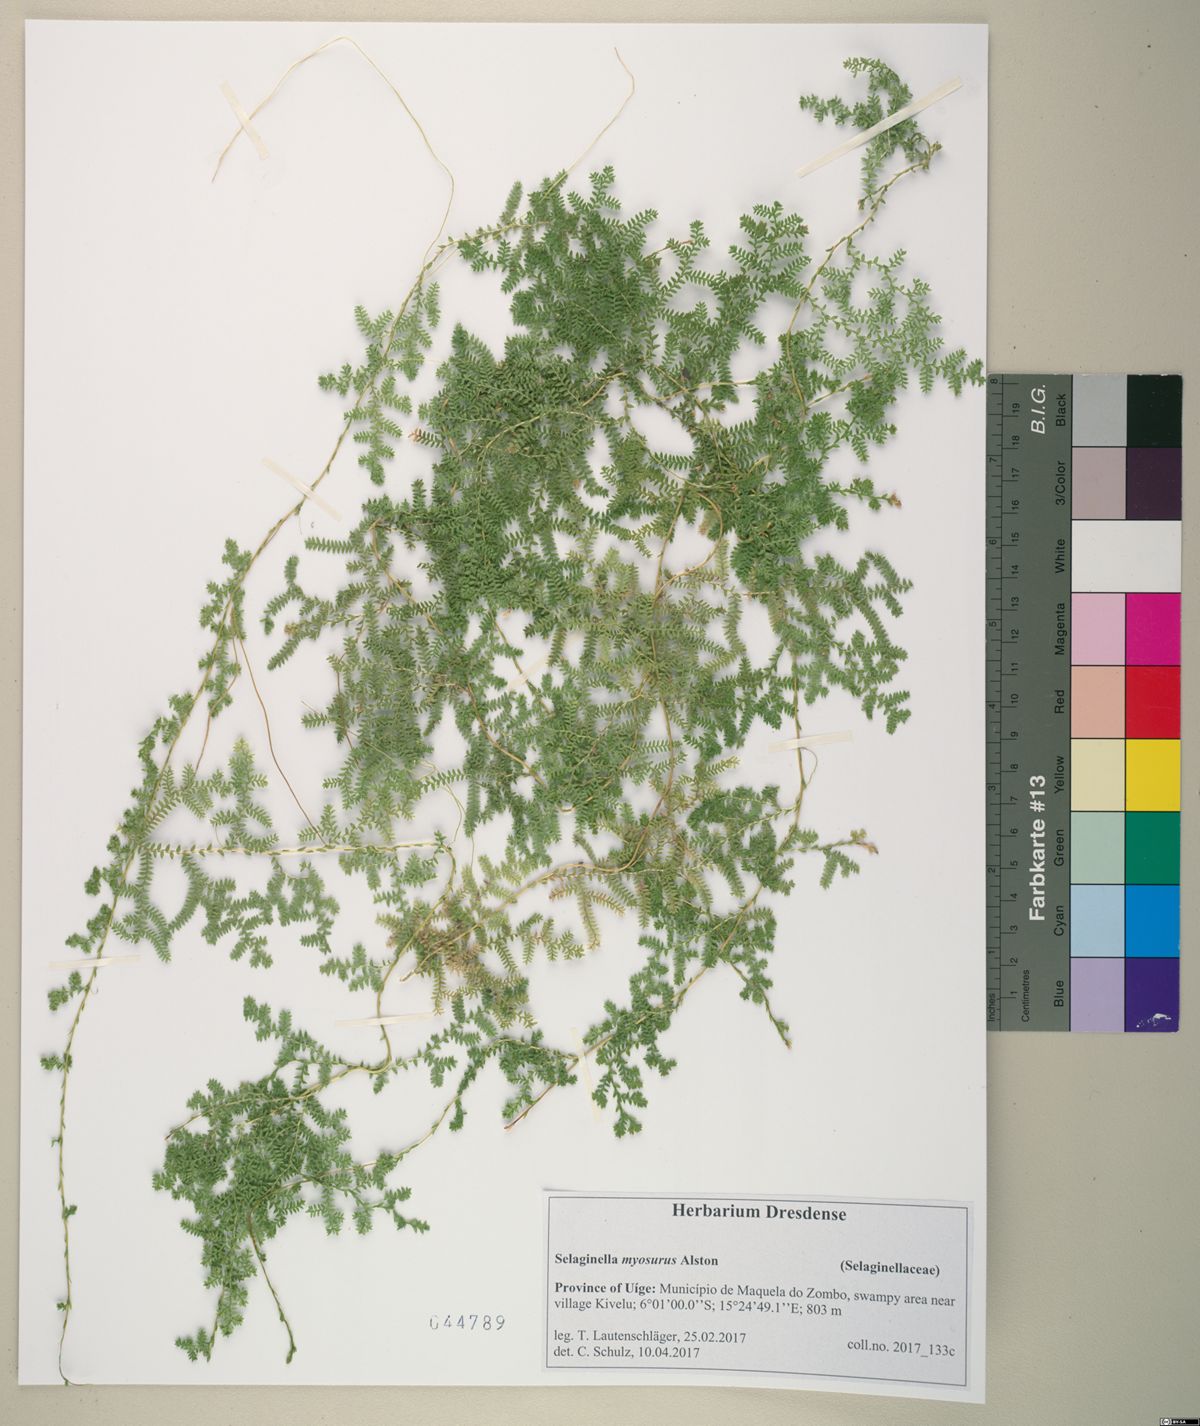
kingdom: Plantae
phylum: Tracheophyta
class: Lycopodiopsida
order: Selaginellales
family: Selaginellaceae
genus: Selaginella
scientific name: Selaginella myosurus
